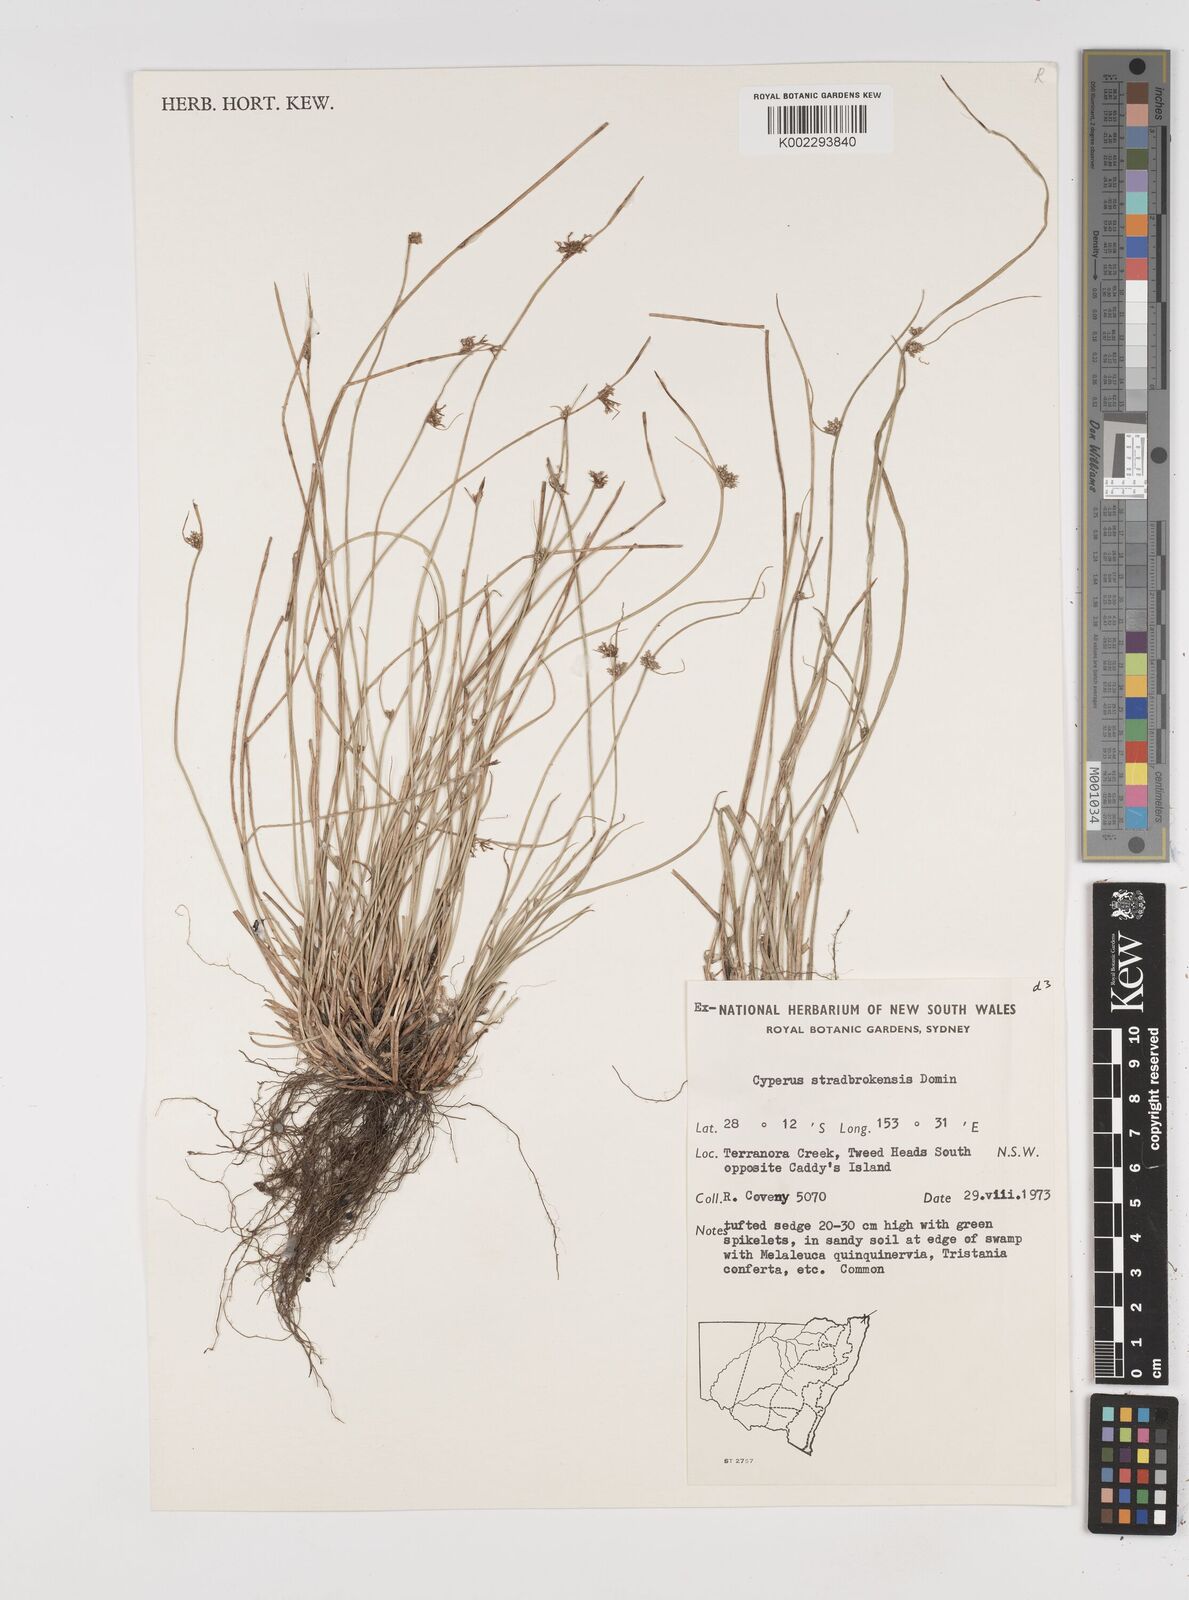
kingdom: Plantae
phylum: Tracheophyta
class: Liliopsida
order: Poales
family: Cyperaceae
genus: Cyperus
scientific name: Cyperus stradbrokensis
